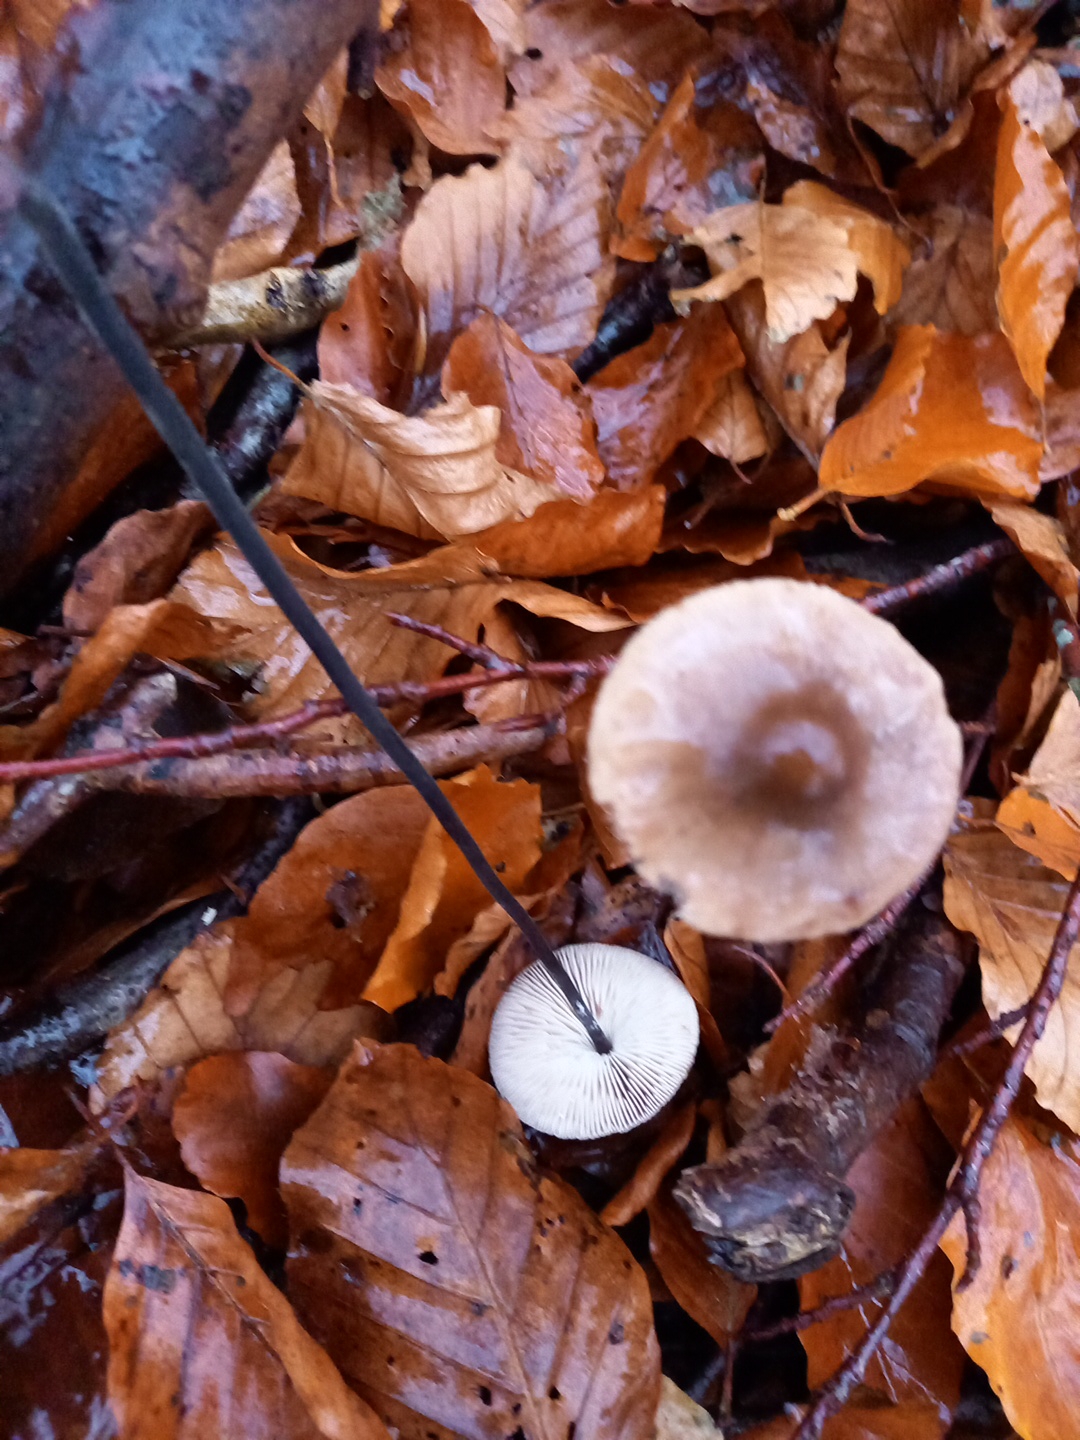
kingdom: Fungi
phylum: Basidiomycota
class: Agaricomycetes
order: Agaricales
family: Omphalotaceae
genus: Mycetinis
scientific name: Mycetinis alliaceus
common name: stor løghat
